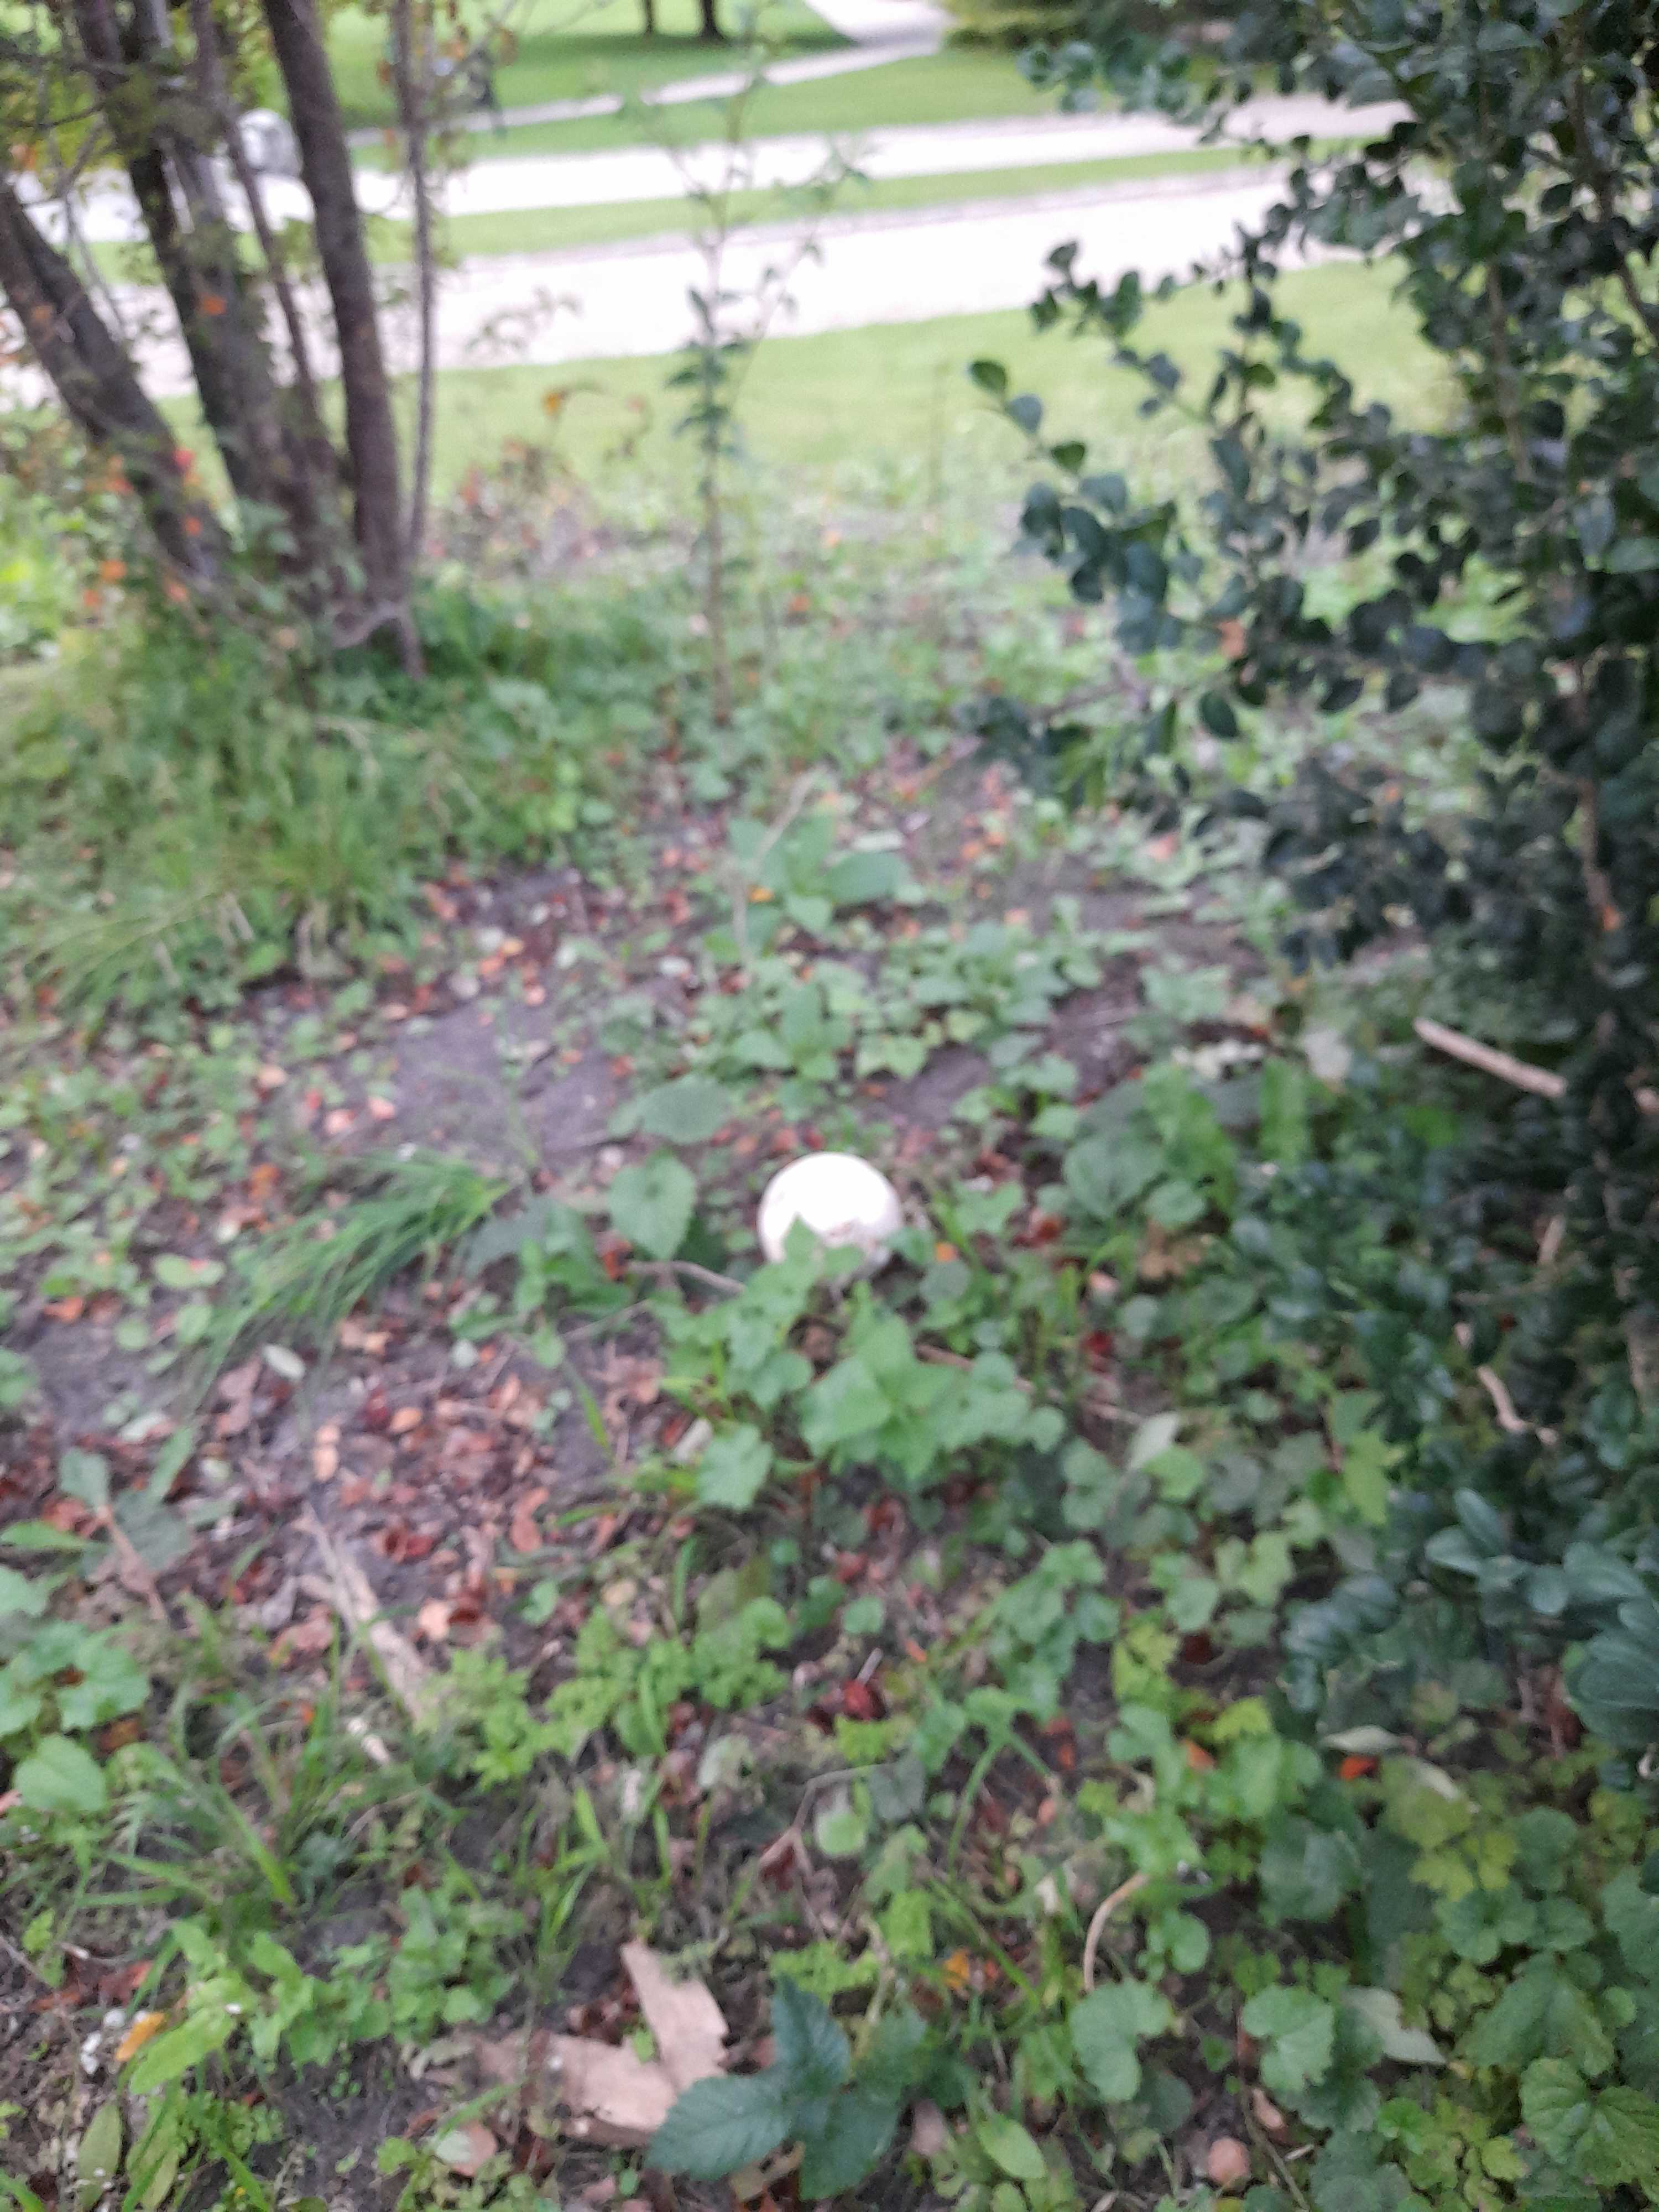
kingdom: Fungi
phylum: Basidiomycota
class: Agaricomycetes
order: Agaricales
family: Lycoperdaceae
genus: Calvatia
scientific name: Calvatia gigantea
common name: kæmpestøvbold
